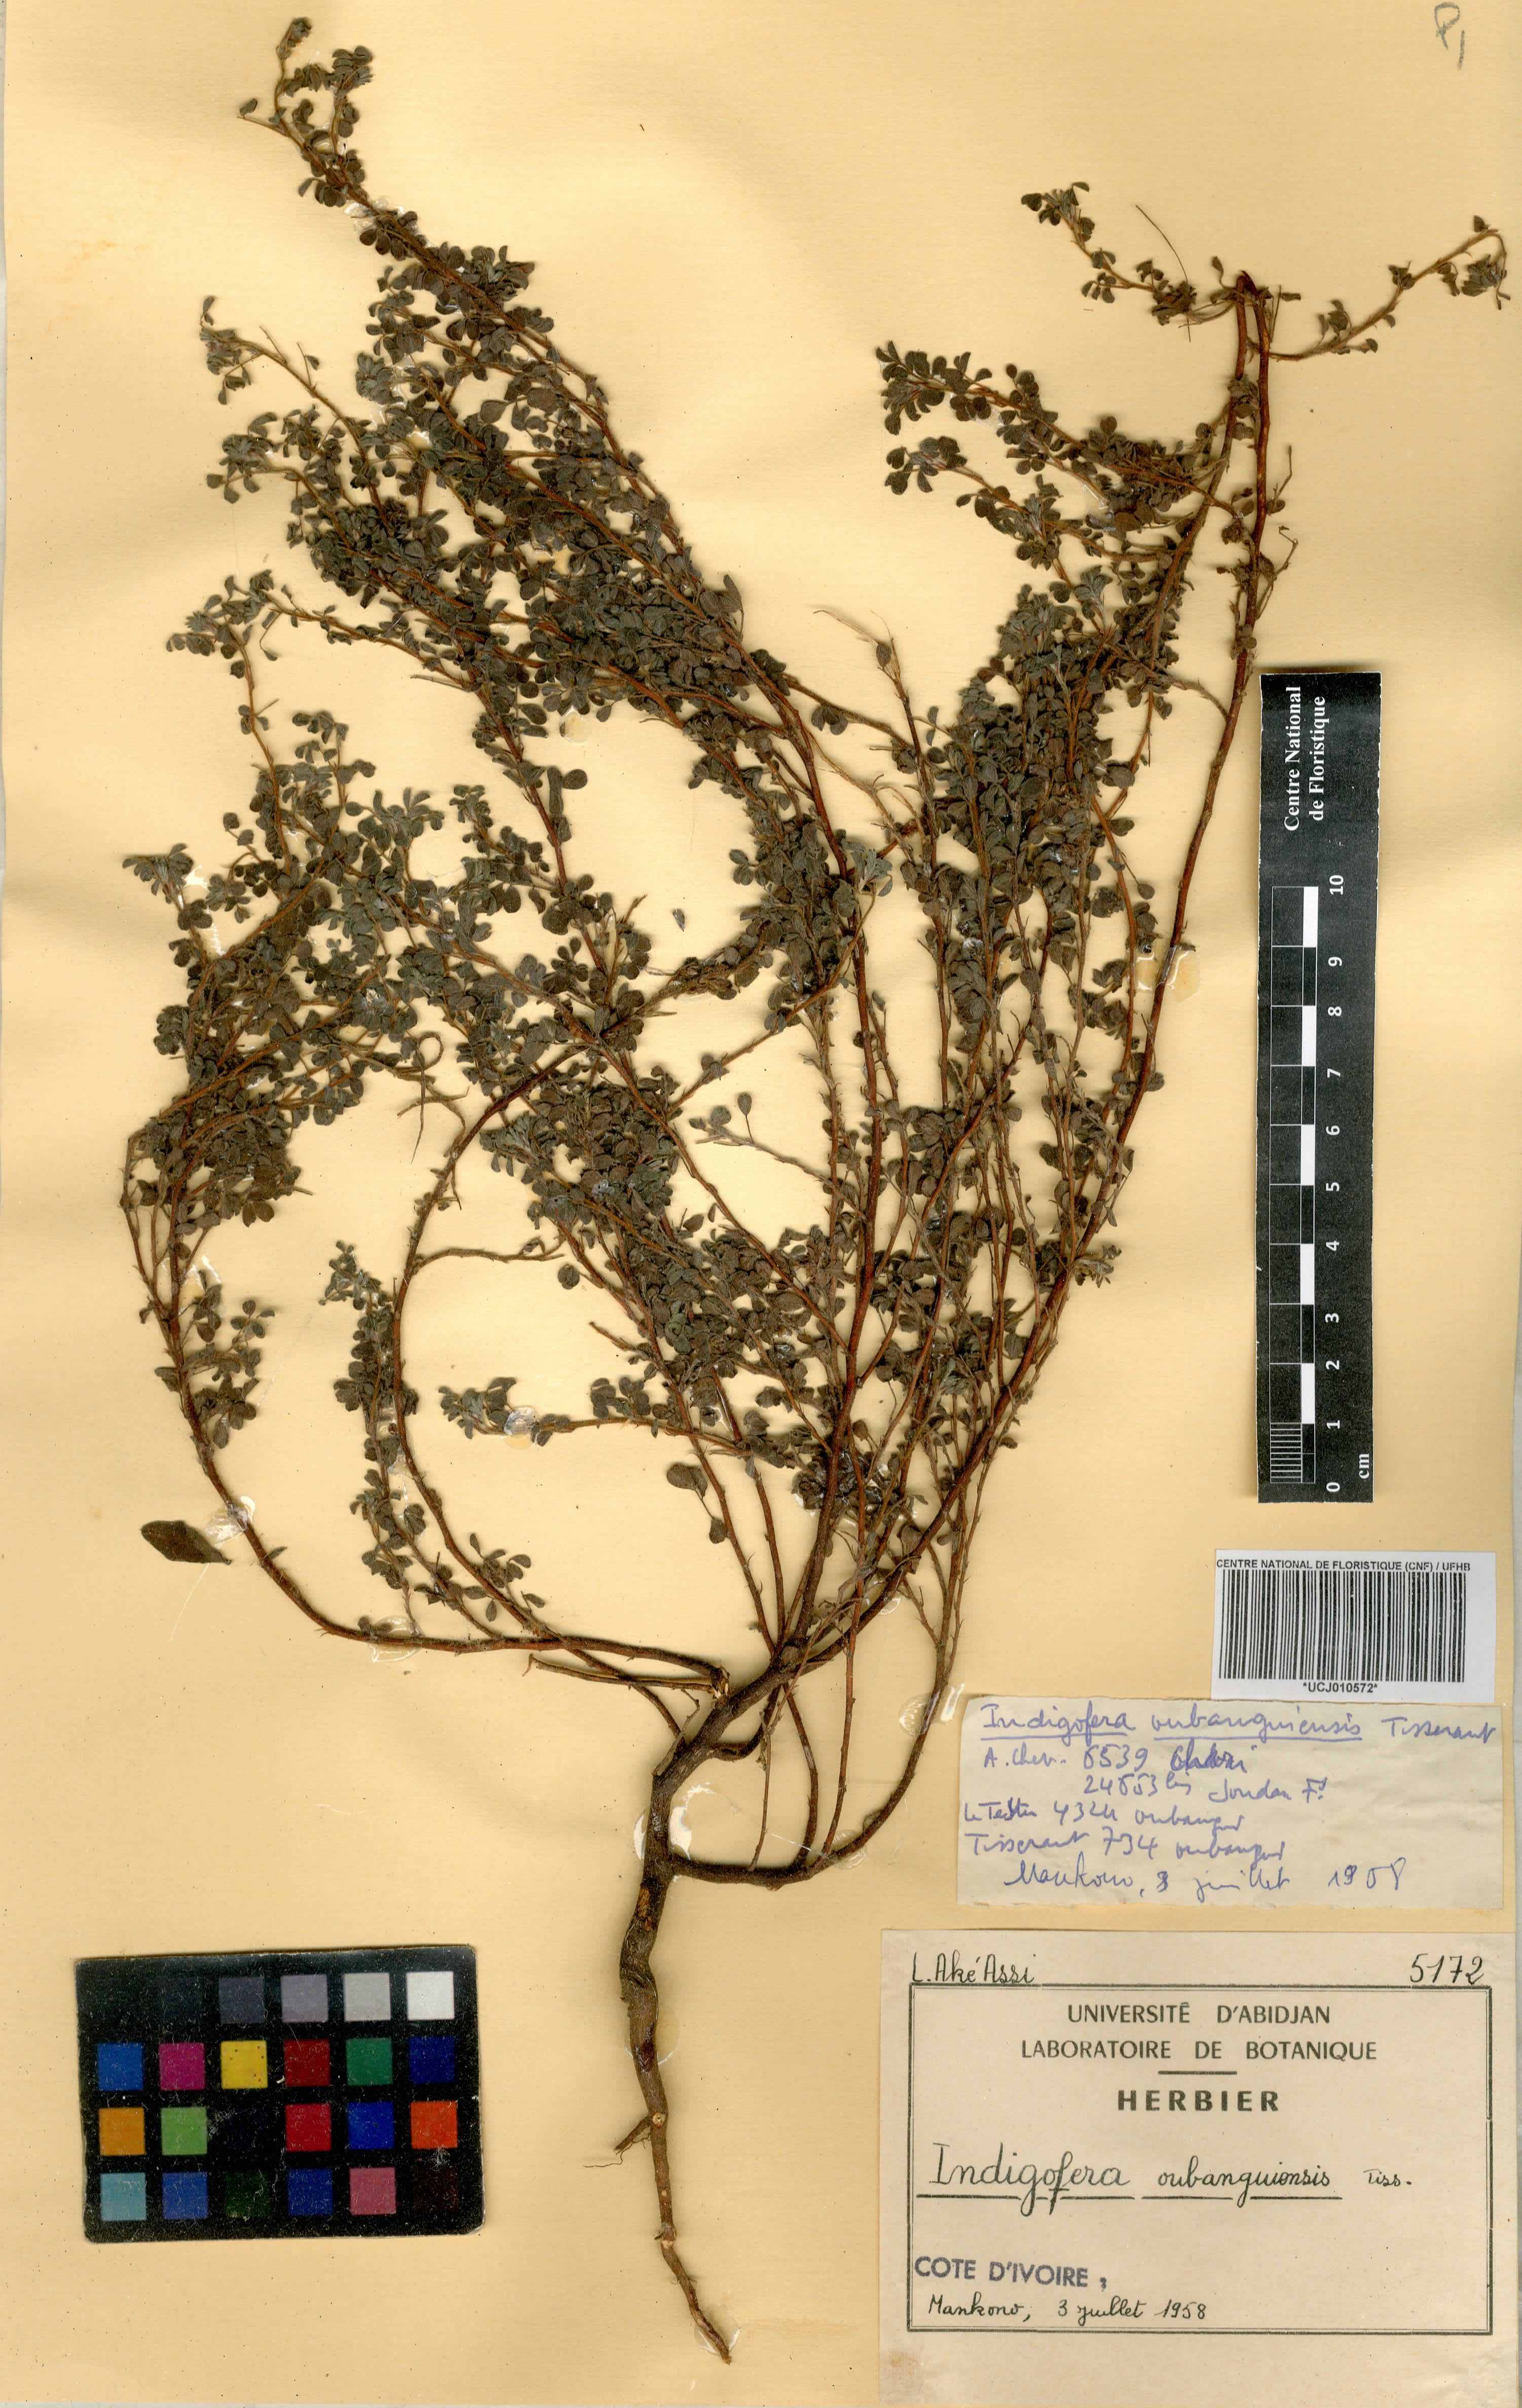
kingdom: Plantae
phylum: Tracheophyta
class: Magnoliopsida
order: Fabales
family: Fabaceae
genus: Indigofera
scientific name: Indigofera oubanguiensis
